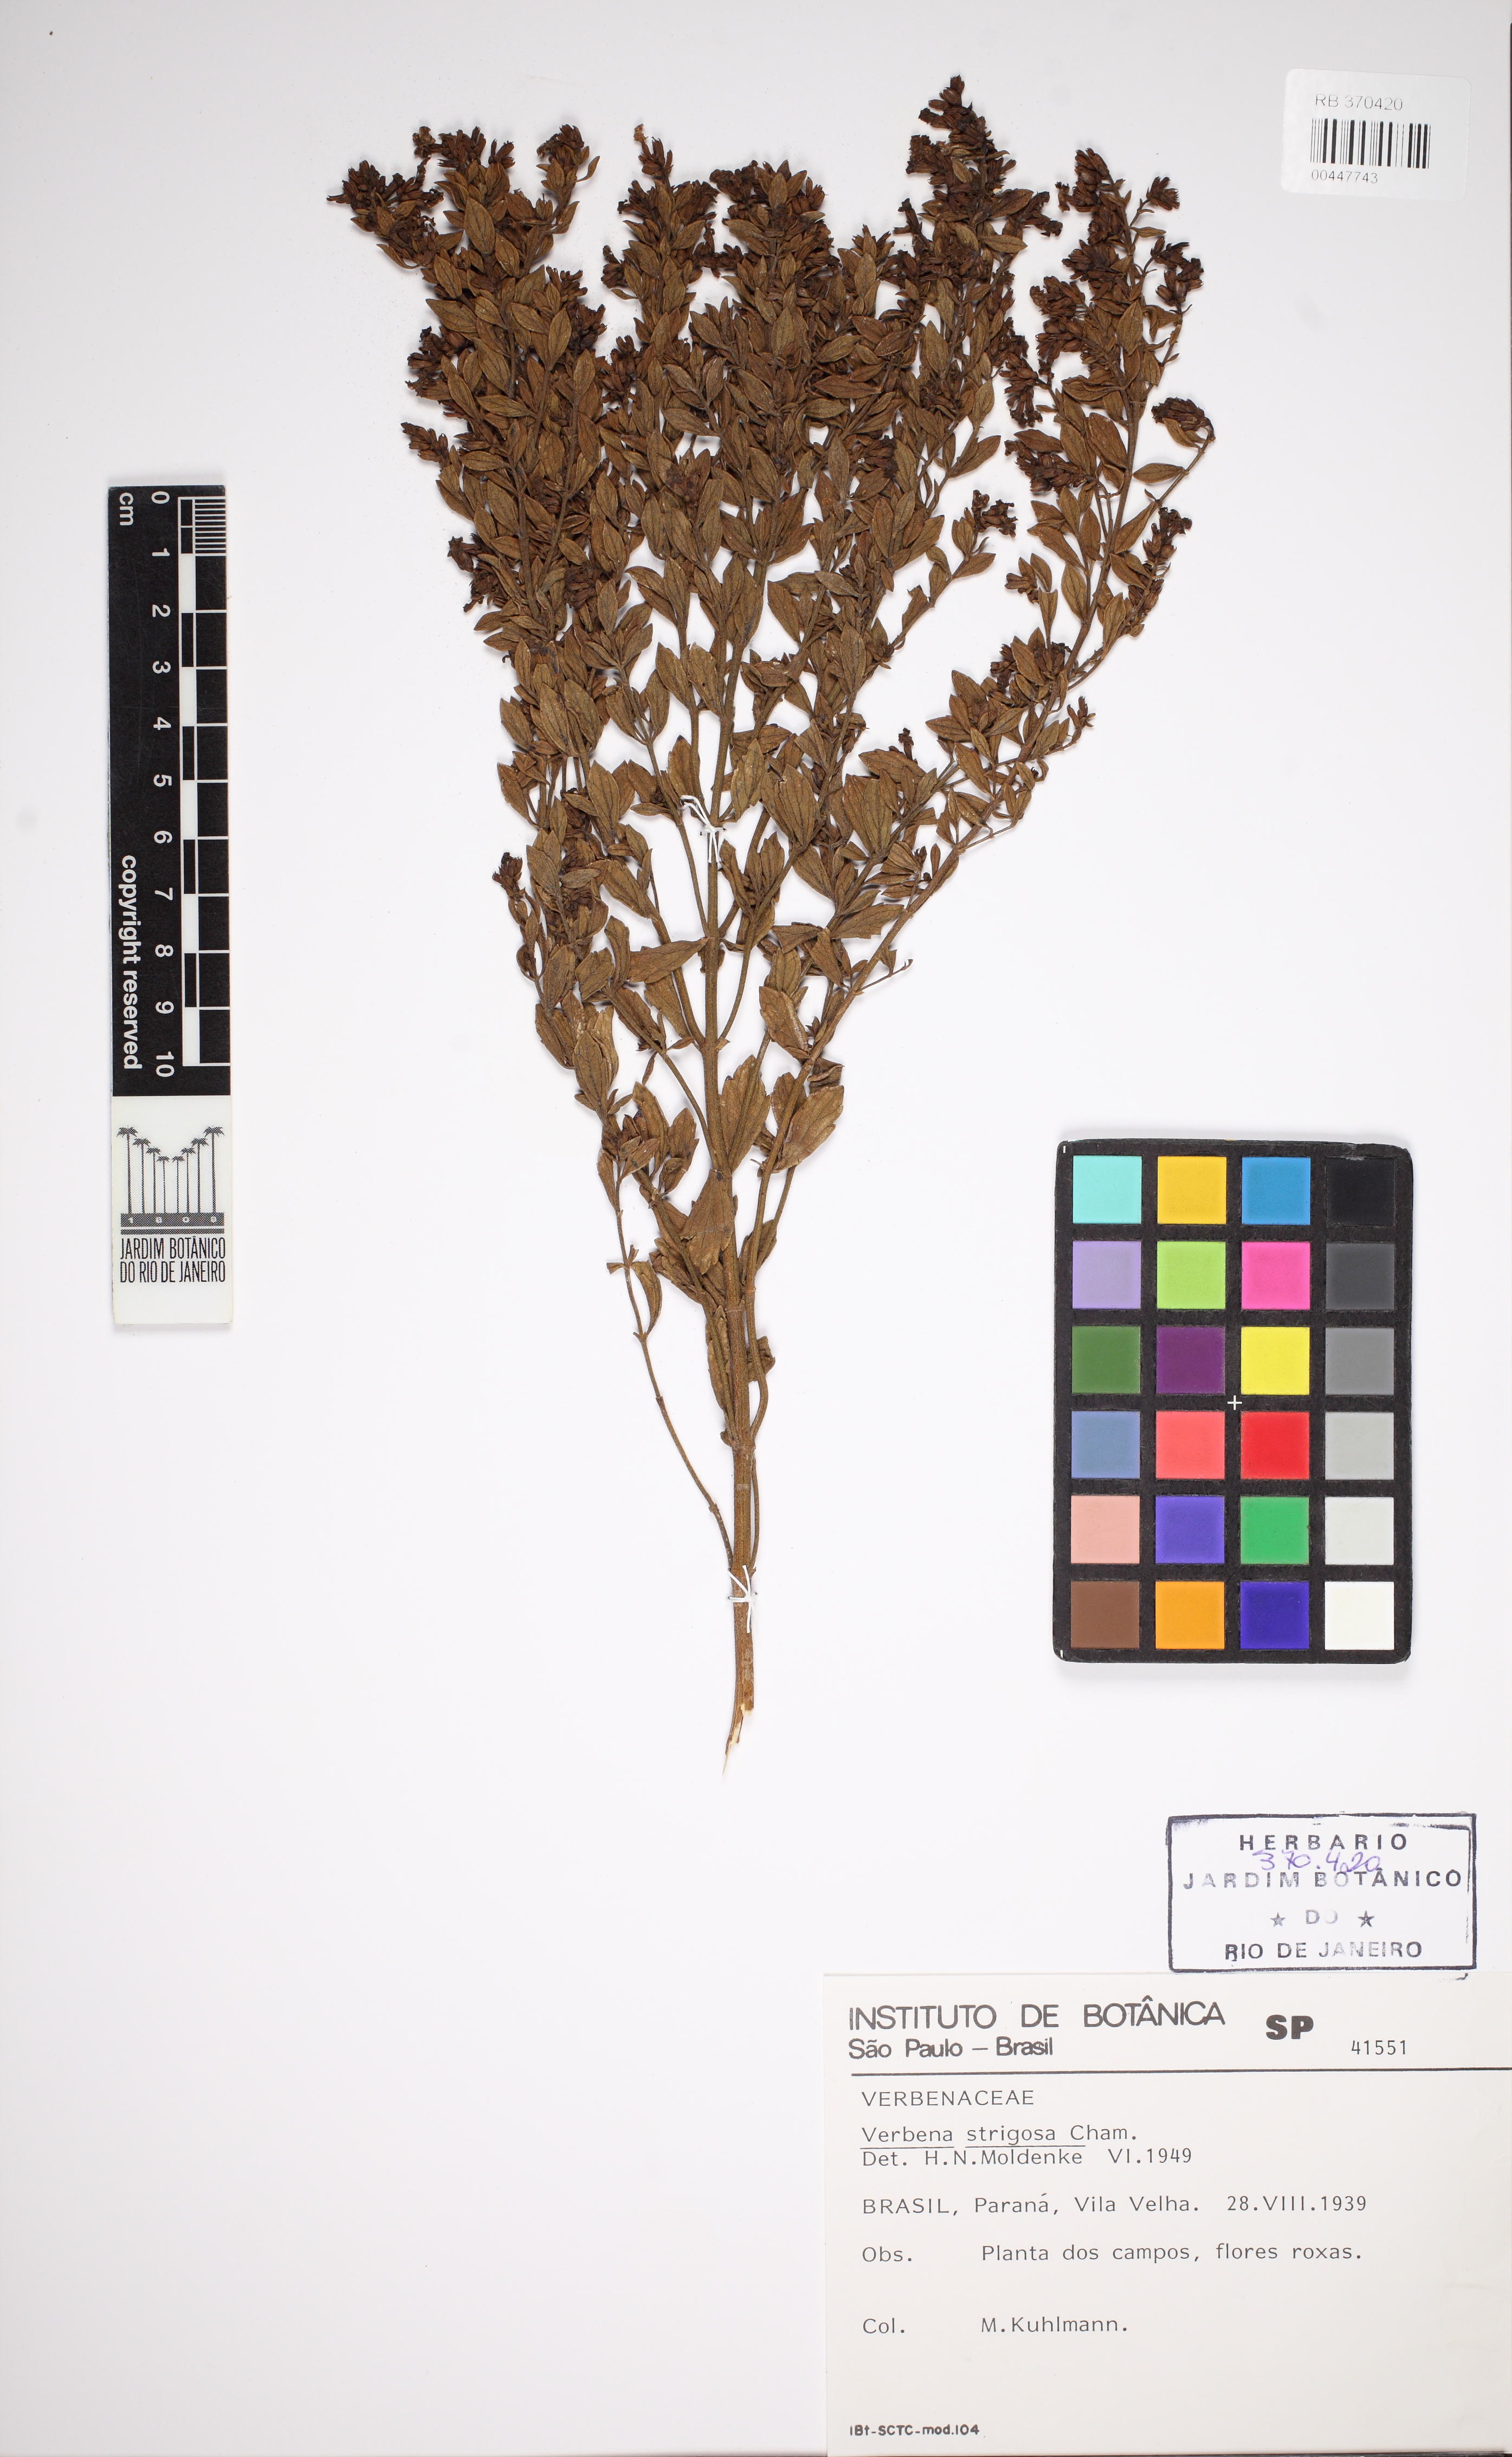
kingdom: Plantae
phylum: Tracheophyta
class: Magnoliopsida
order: Lamiales
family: Verbenaceae
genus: Verbena
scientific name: Verbena xutha
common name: Gulf vervain
